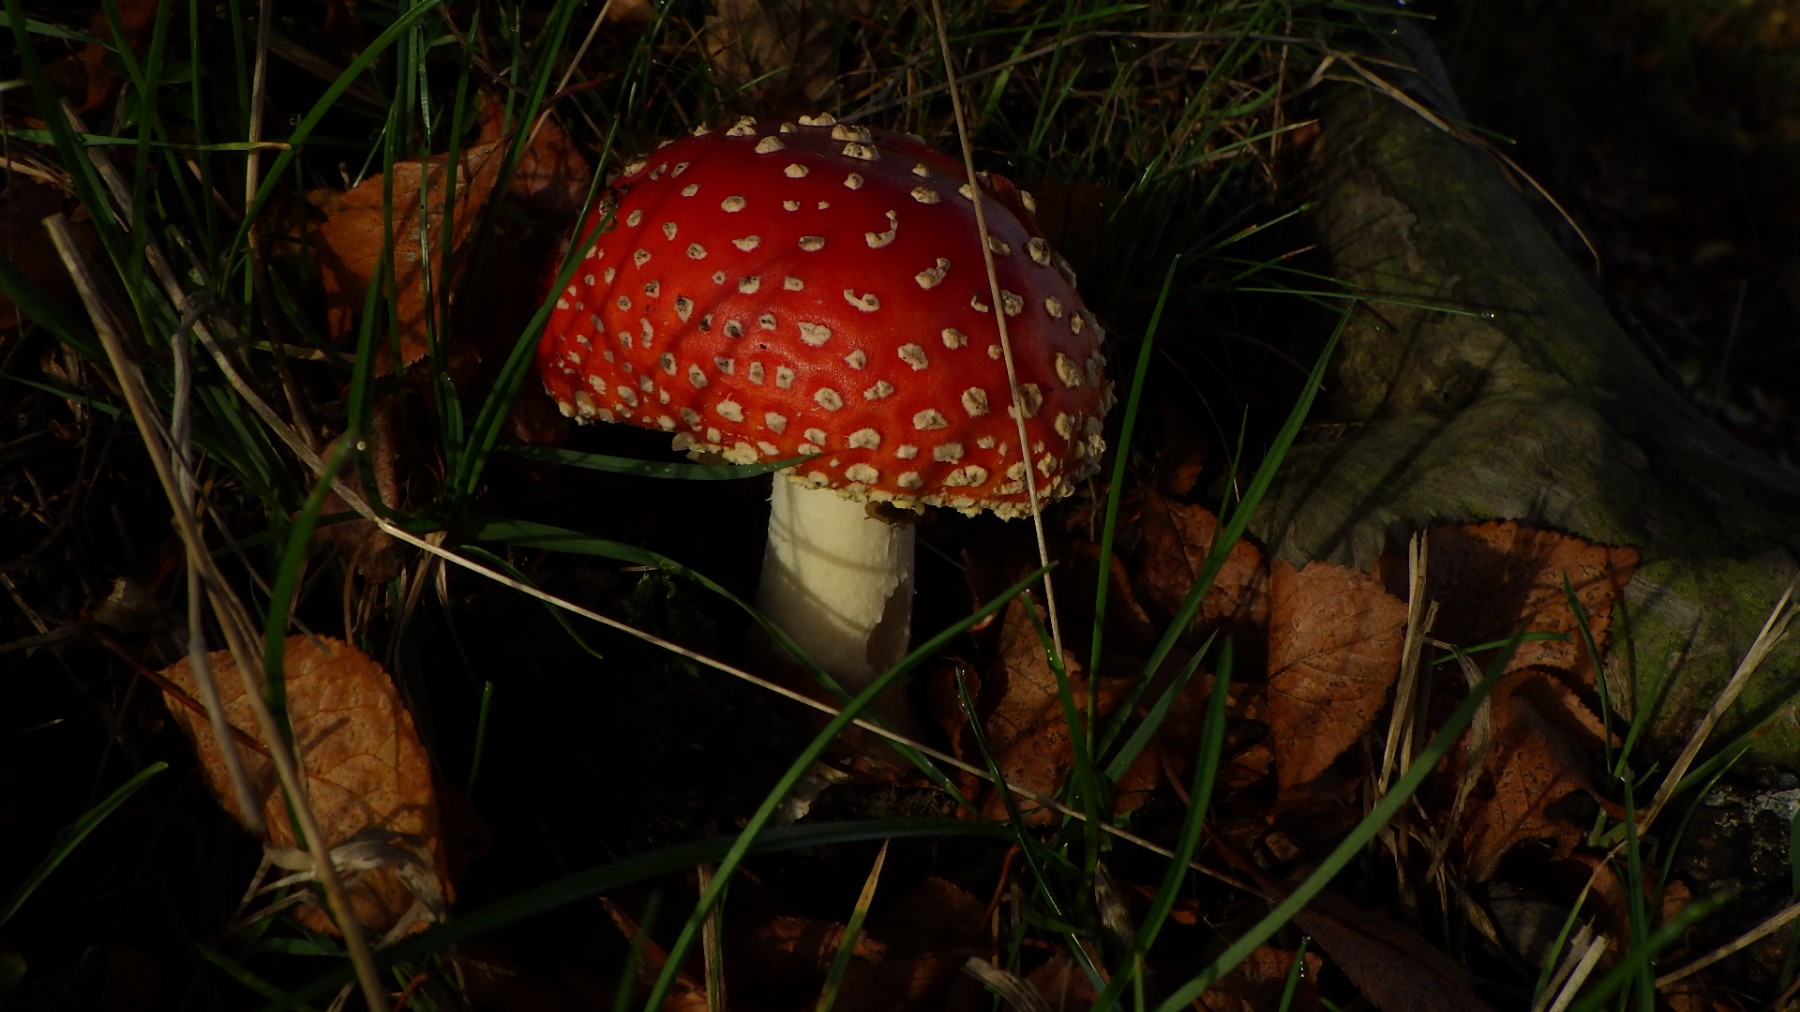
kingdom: Fungi
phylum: Basidiomycota
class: Agaricomycetes
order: Agaricales
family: Amanitaceae
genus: Amanita
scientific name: Amanita muscaria
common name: rød fluesvamp
